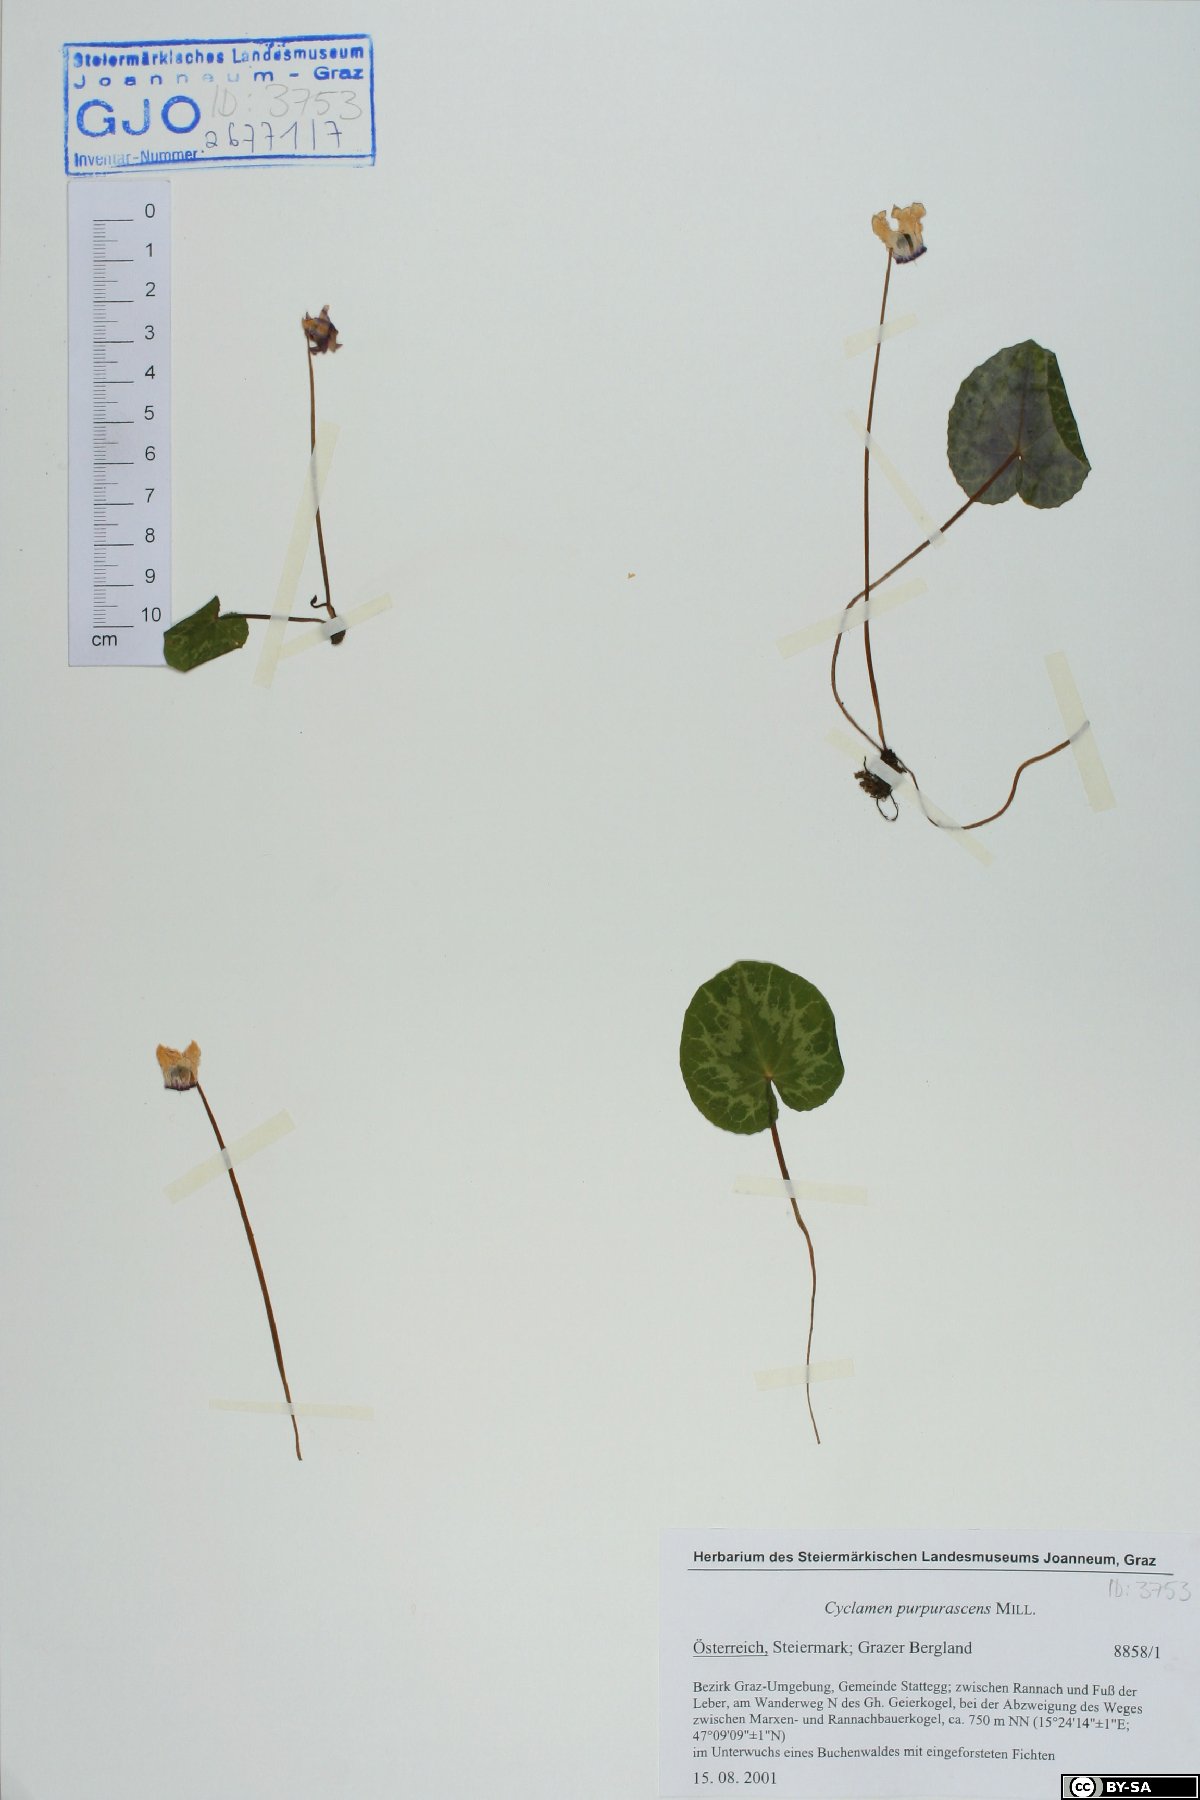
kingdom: Plantae
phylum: Tracheophyta
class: Magnoliopsida
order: Ericales
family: Primulaceae
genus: Cyclamen
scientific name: Cyclamen purpurascens
